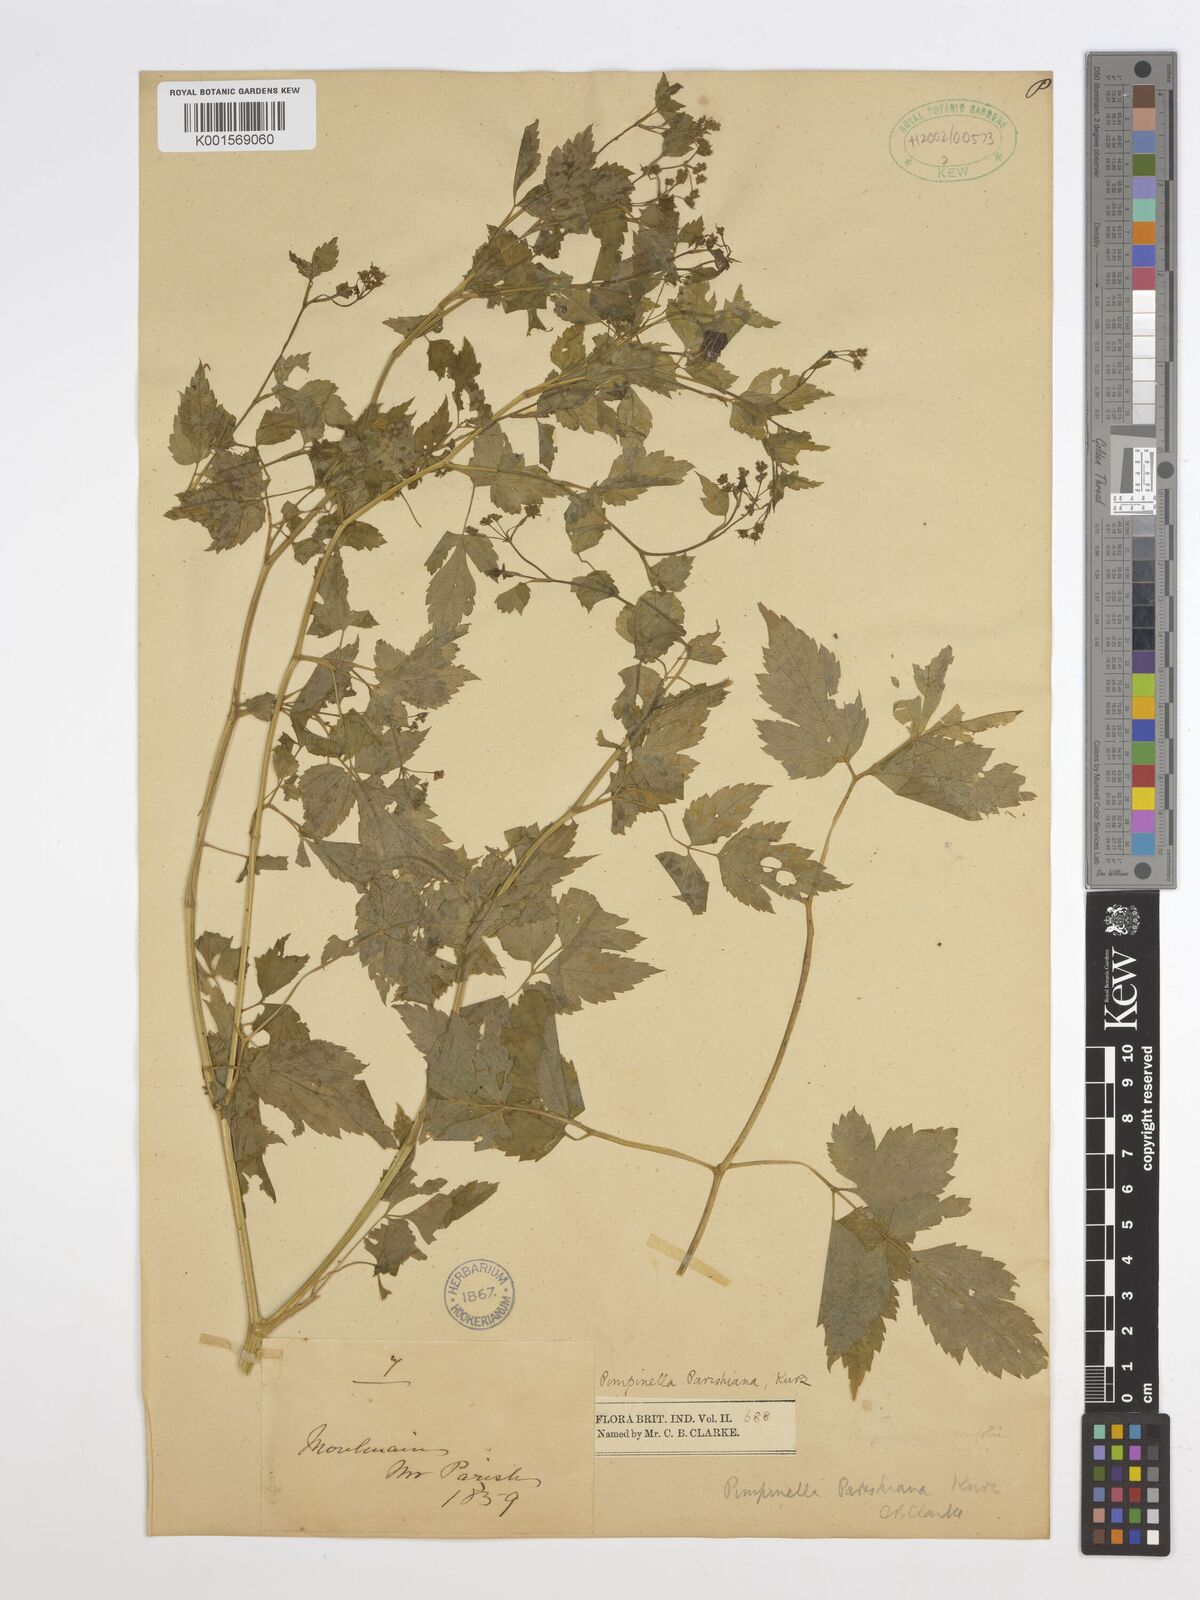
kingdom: Plantae
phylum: Tracheophyta
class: Magnoliopsida
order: Apiales
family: Apiaceae
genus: Pimpinella
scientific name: Pimpinella parishiana
